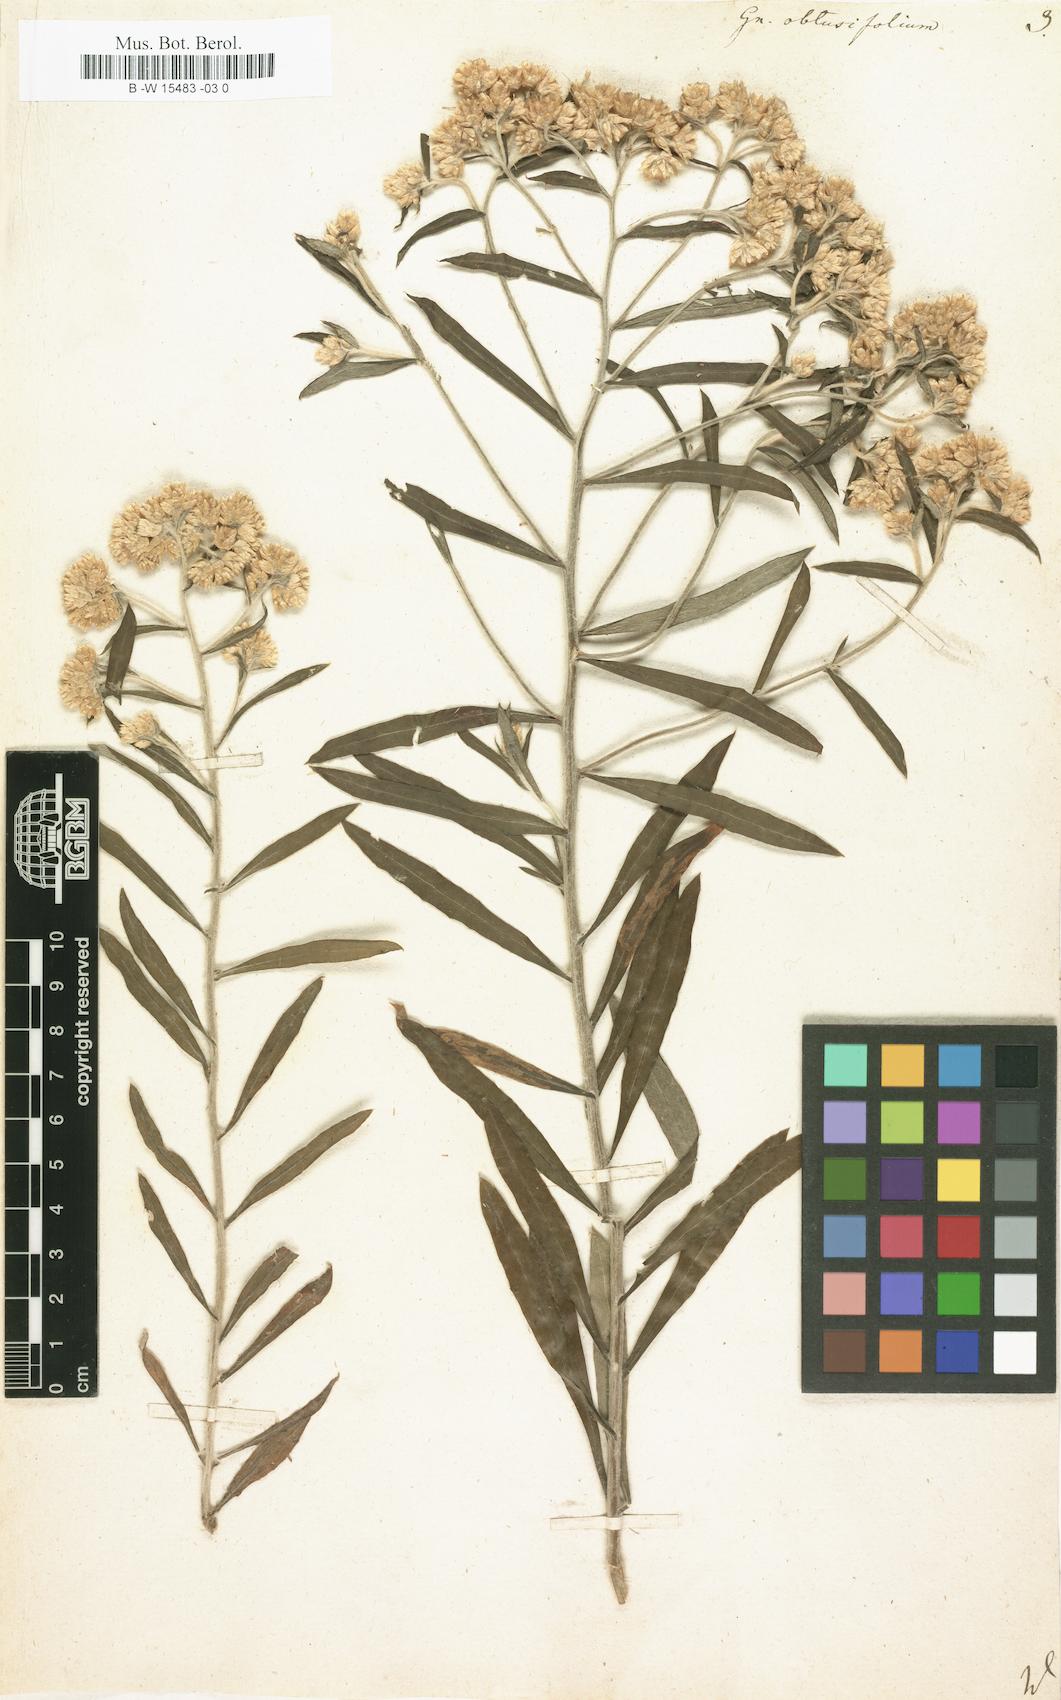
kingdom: Plantae
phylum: Tracheophyta
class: Magnoliopsida
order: Asterales
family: Asteraceae
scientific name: Asteraceae
